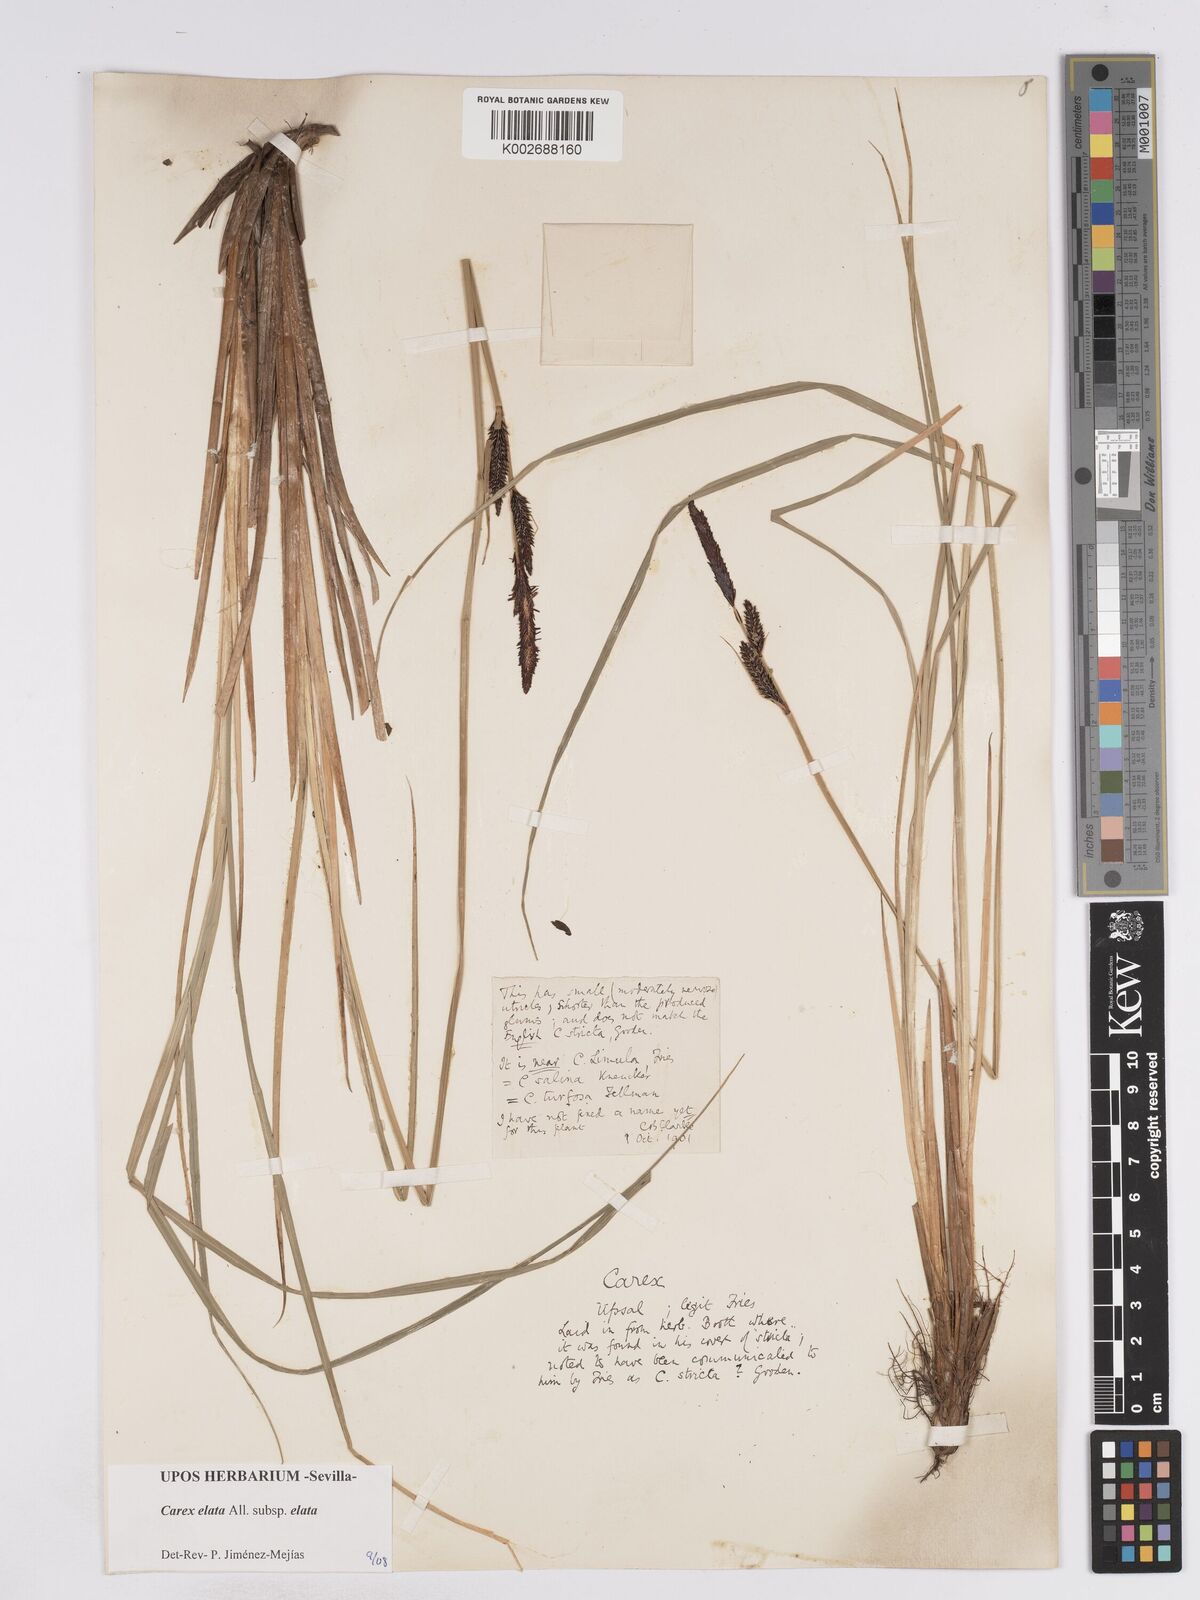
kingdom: Plantae
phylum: Tracheophyta
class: Liliopsida
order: Poales
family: Cyperaceae
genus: Carex
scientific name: Carex elata
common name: Tufted sedge
